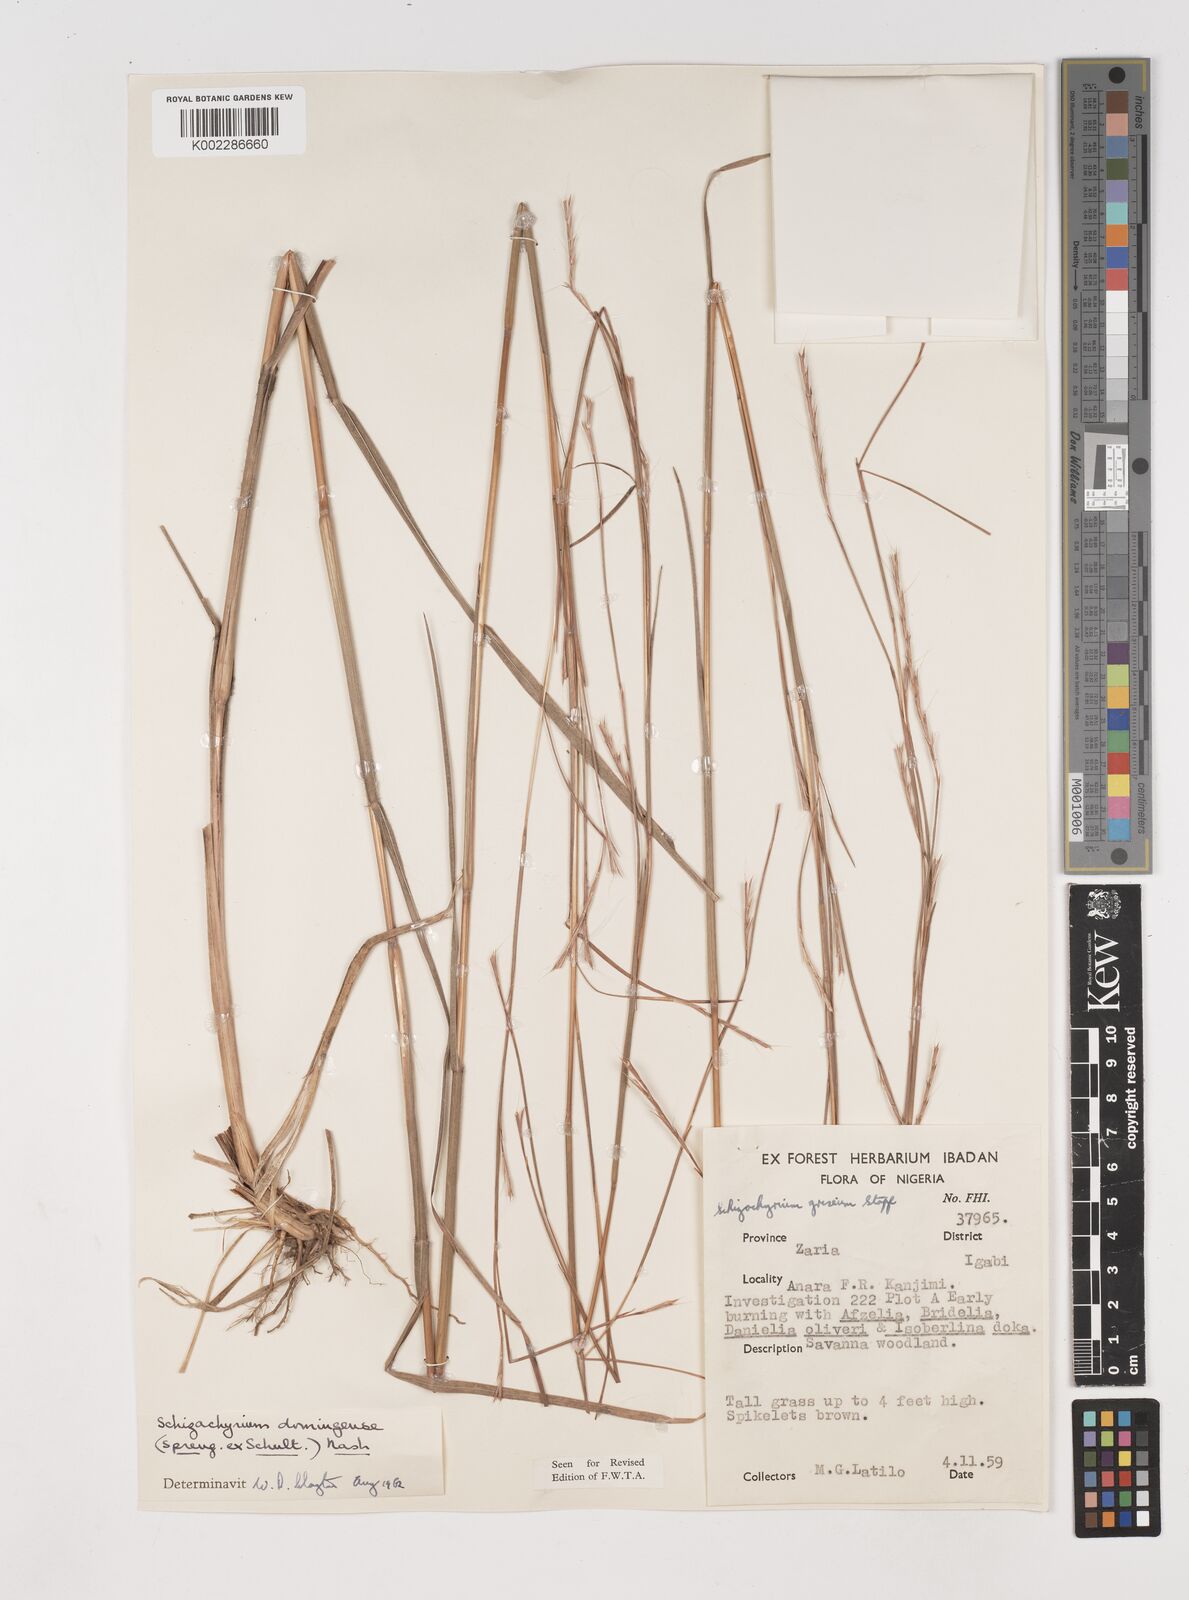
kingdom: Plantae
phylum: Tracheophyta
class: Liliopsida
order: Poales
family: Poaceae
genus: Schizachyrium
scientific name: Schizachyrium sanguineum
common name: Crimson bluestem
